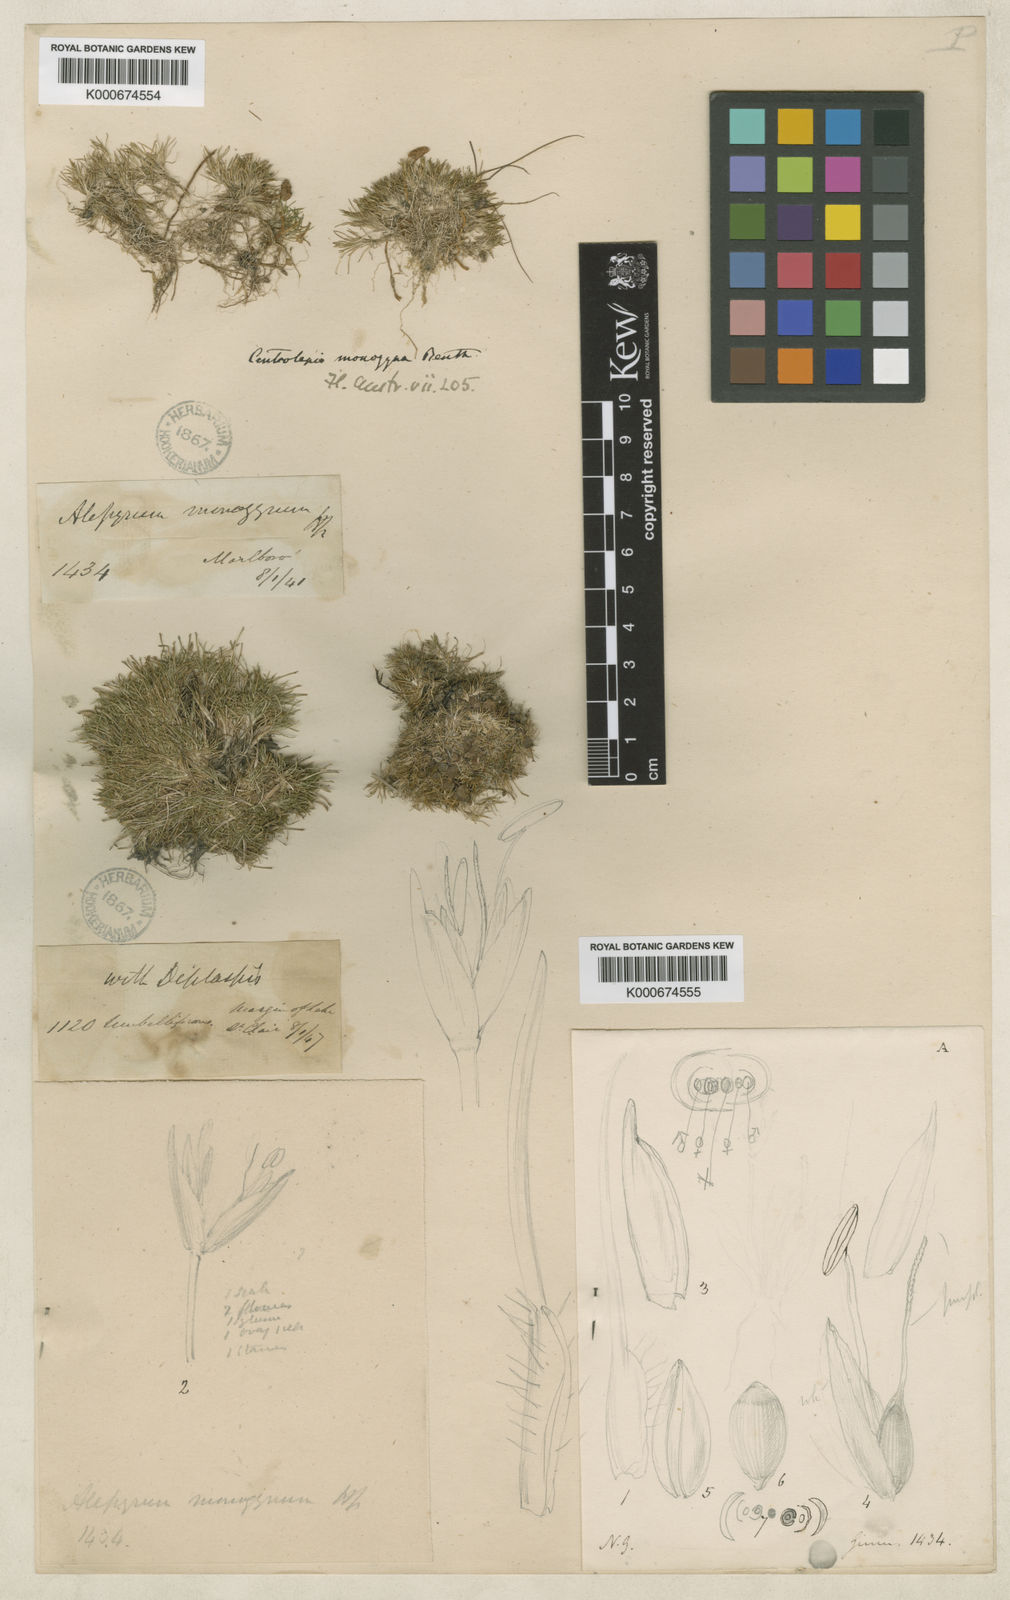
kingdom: Plantae
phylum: Tracheophyta
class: Liliopsida
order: Poales
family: Restionaceae
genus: Centrolepis
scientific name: Centrolepis monogyna
